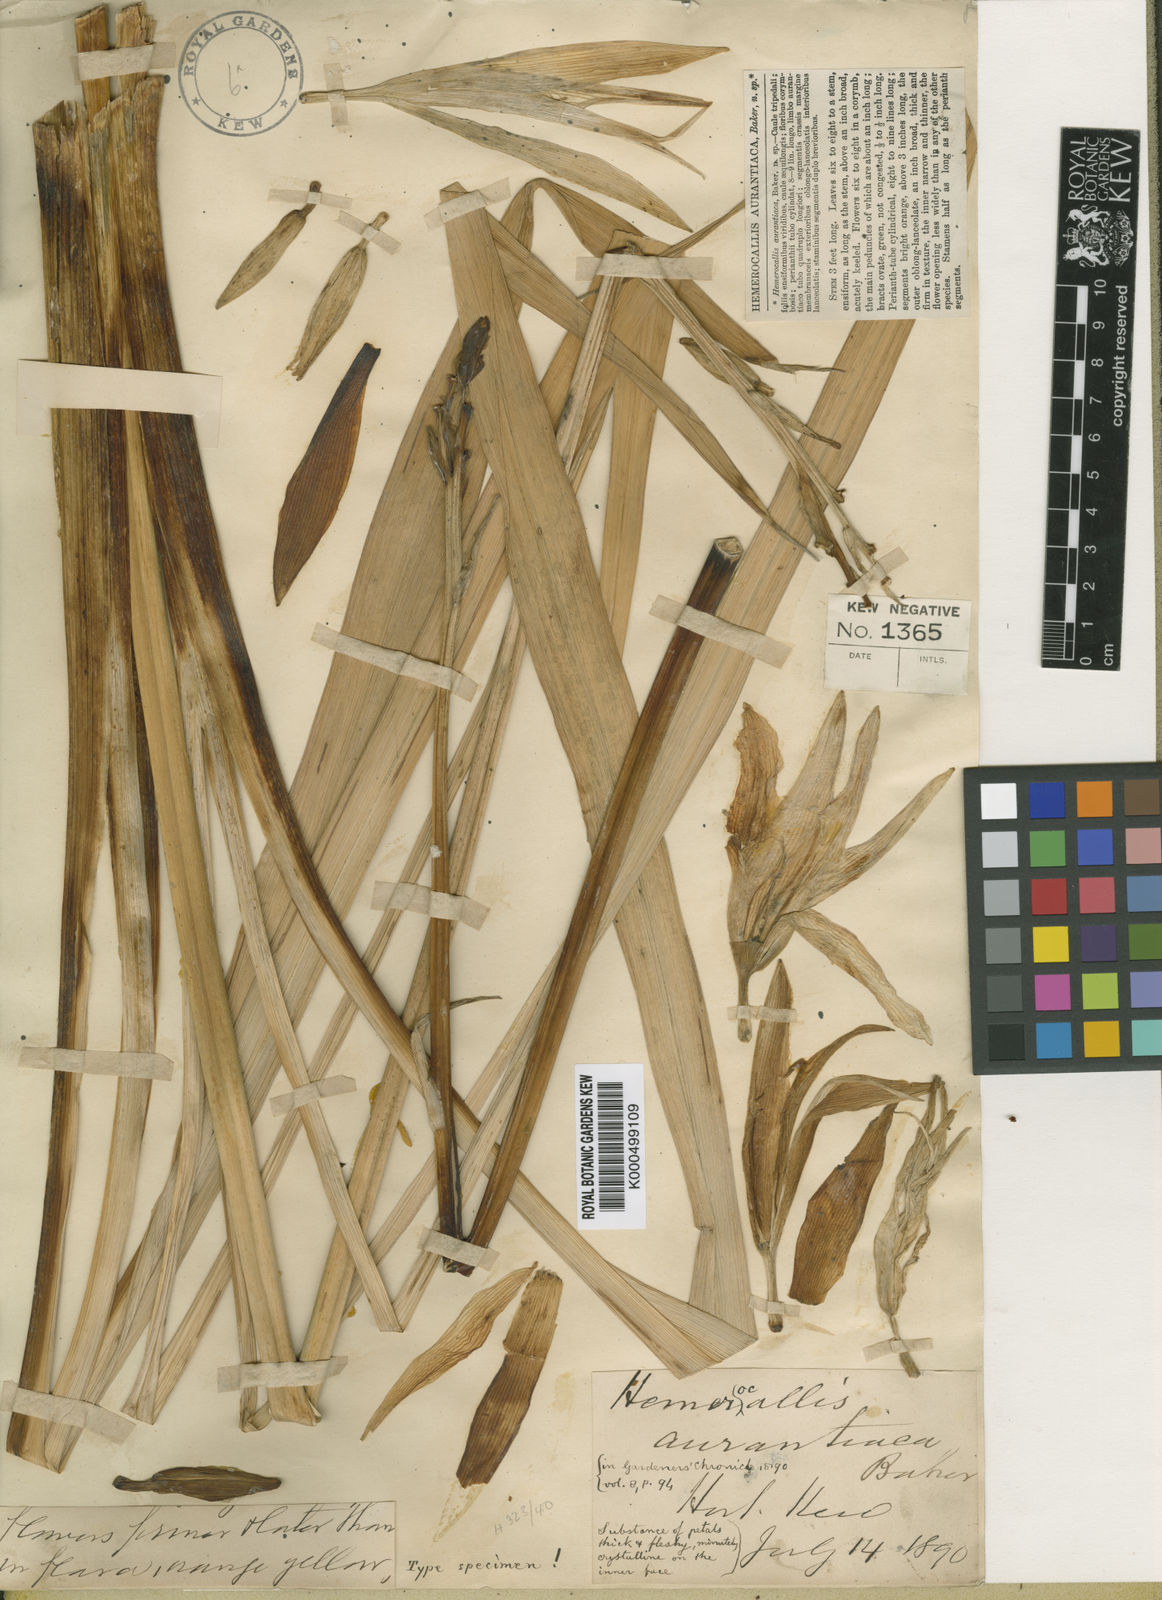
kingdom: Plantae
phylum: Tracheophyta
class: Liliopsida
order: Asparagales
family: Asphodelaceae
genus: Hemerocallis
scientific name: Hemerocallis fulva
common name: Orange day-lily
